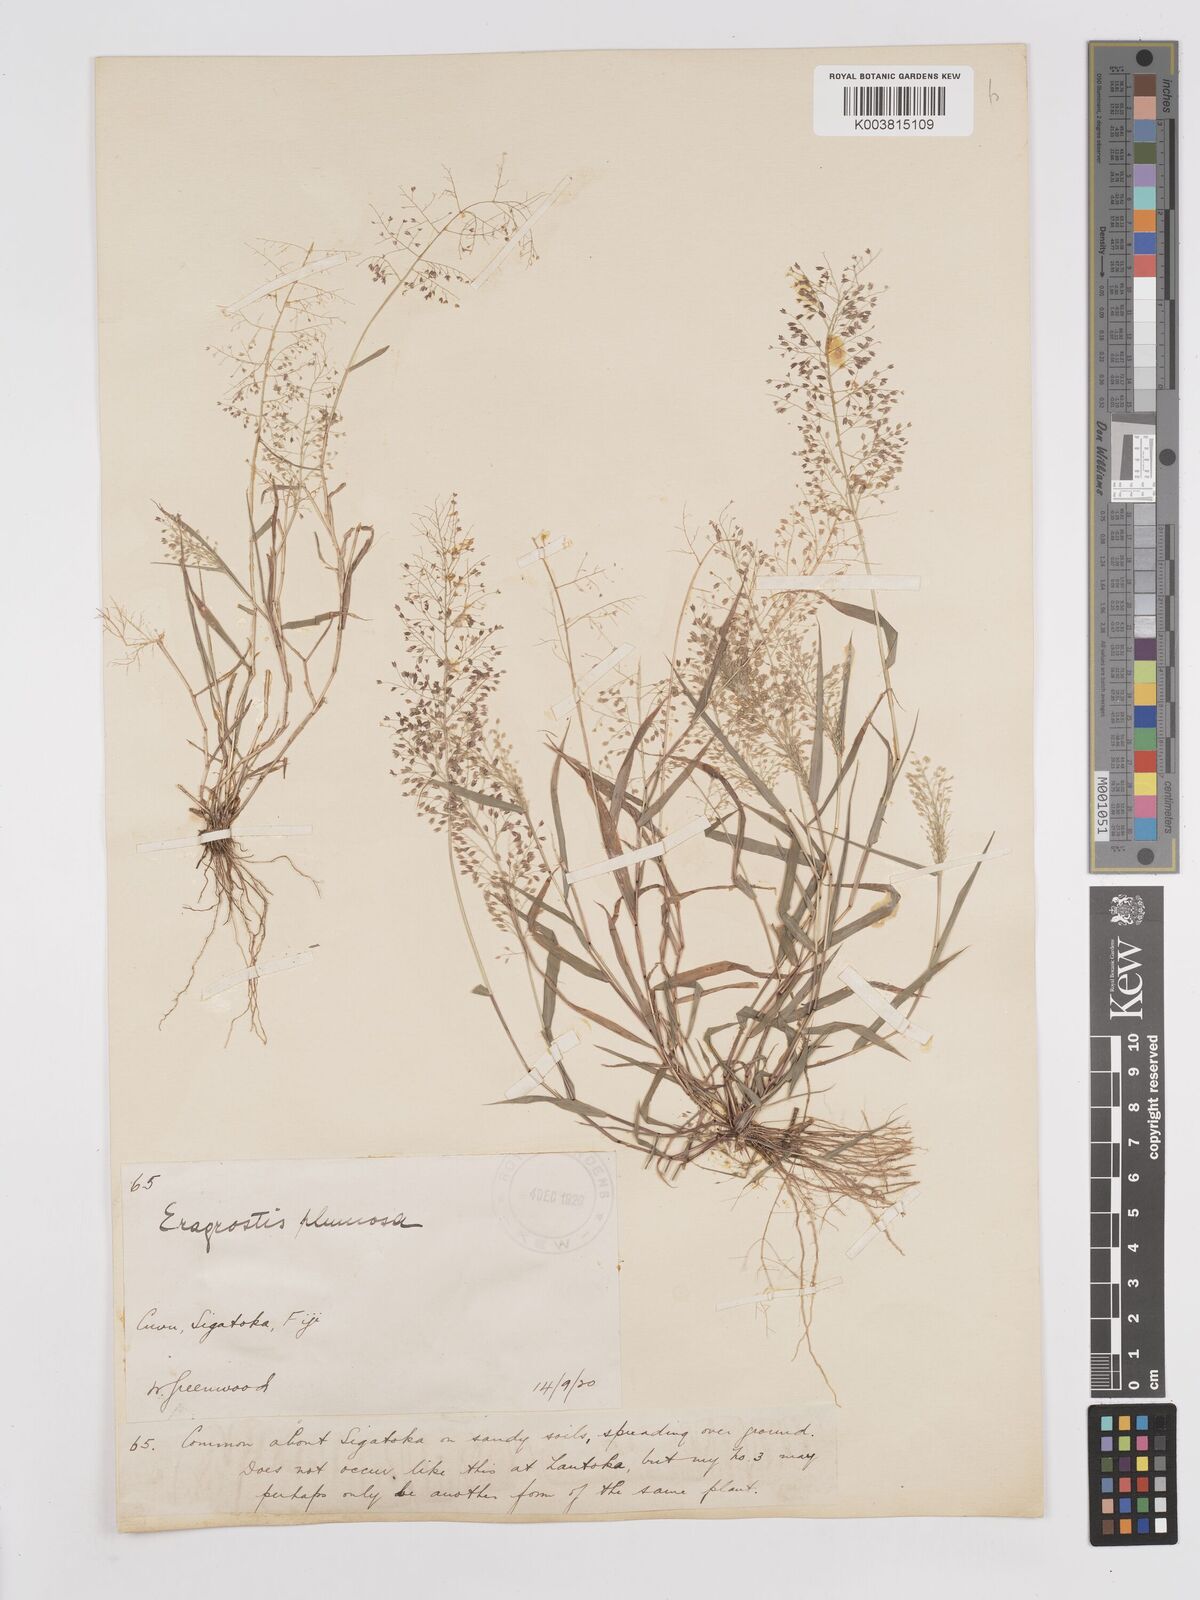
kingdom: Plantae
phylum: Tracheophyta
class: Liliopsida
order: Poales
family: Poaceae
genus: Eragrostis
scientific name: Eragrostis tenella
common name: Japanese lovegrass
